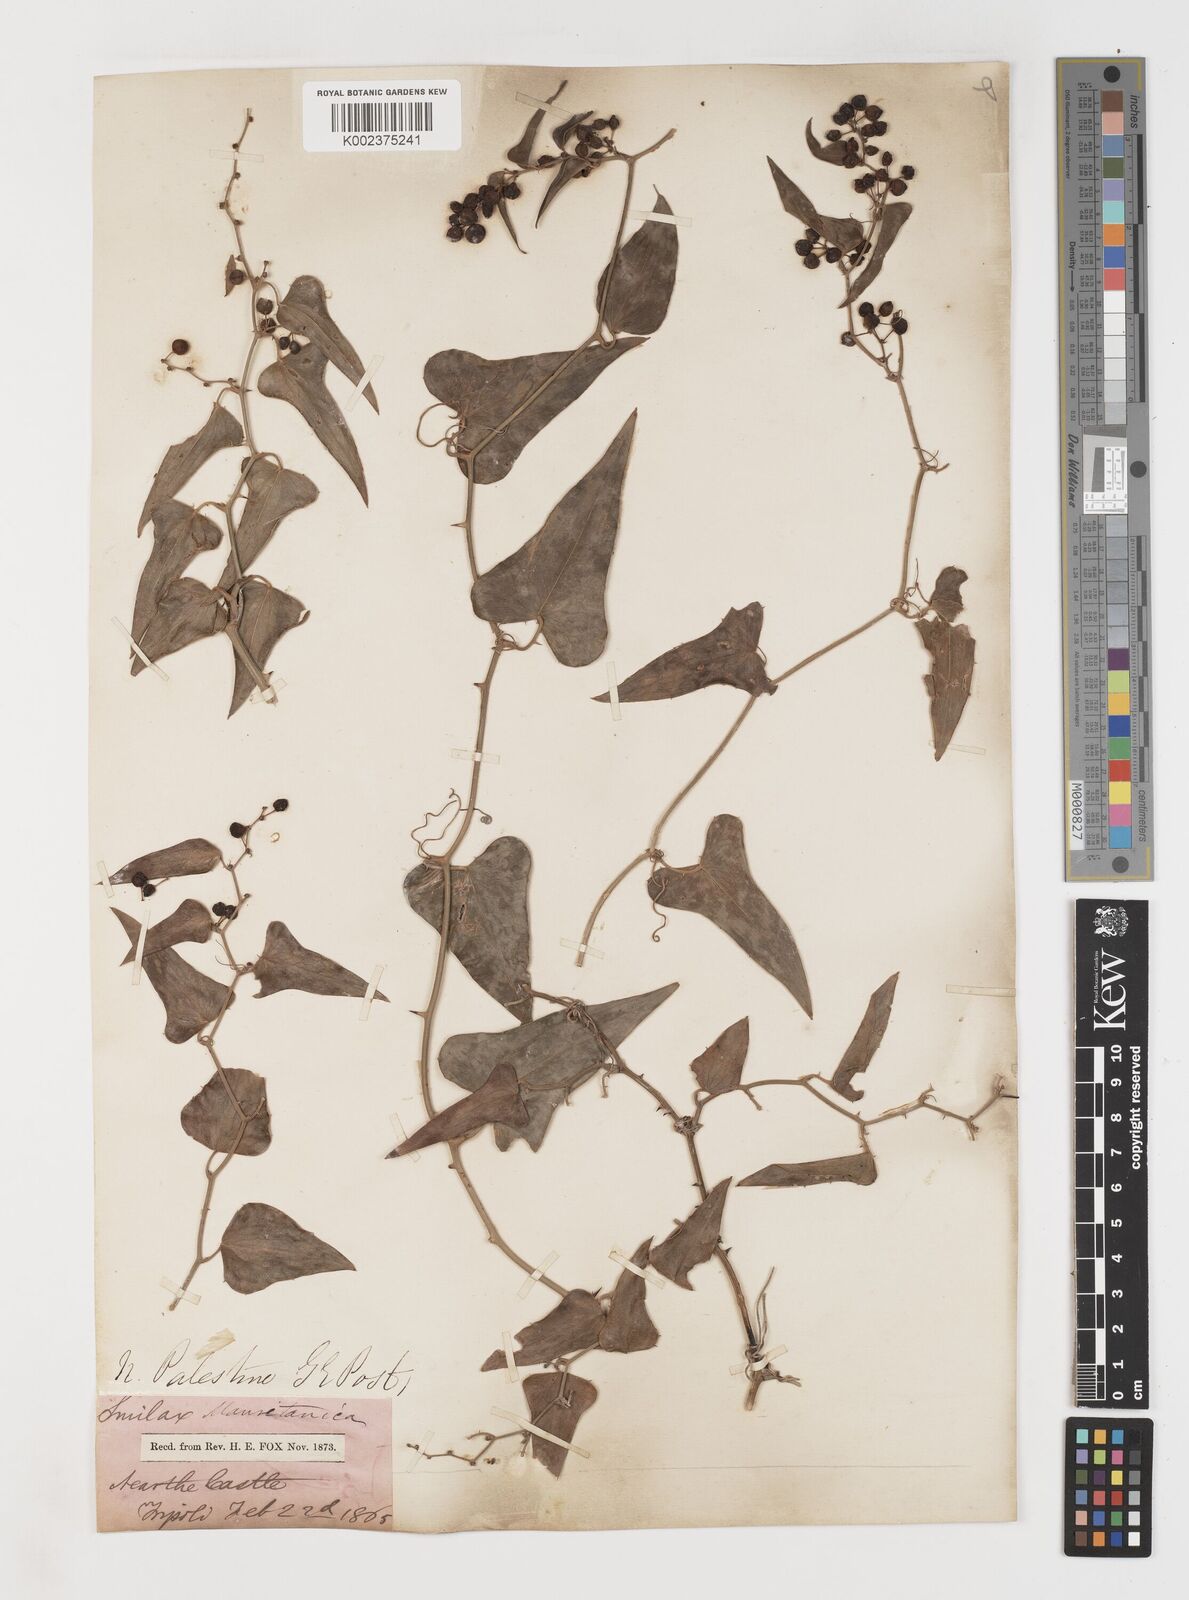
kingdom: Plantae
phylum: Tracheophyta
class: Liliopsida
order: Liliales
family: Smilacaceae
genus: Smilax
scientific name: Smilax aspera
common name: Common smilax
